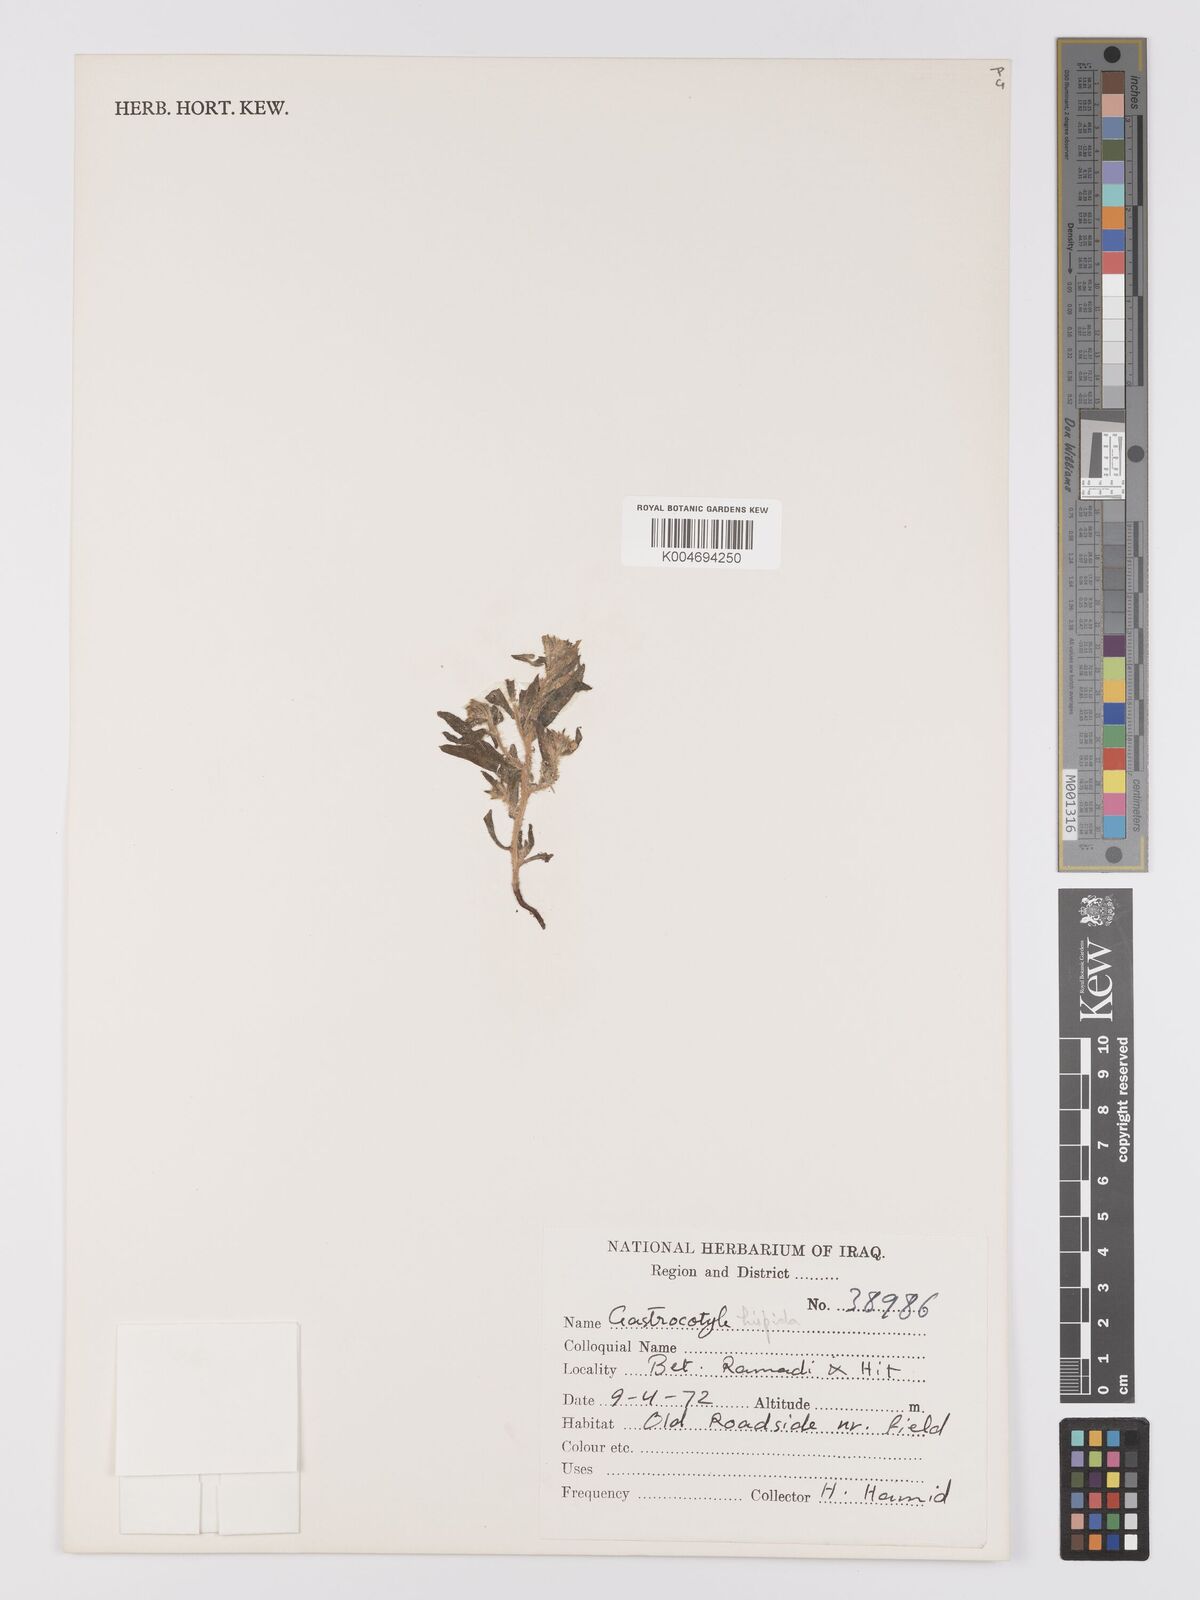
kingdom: Plantae
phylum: Tracheophyta
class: Magnoliopsida
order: Boraginales
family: Boraginaceae
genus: Gastrocotyle
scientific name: Gastrocotyle hispida
